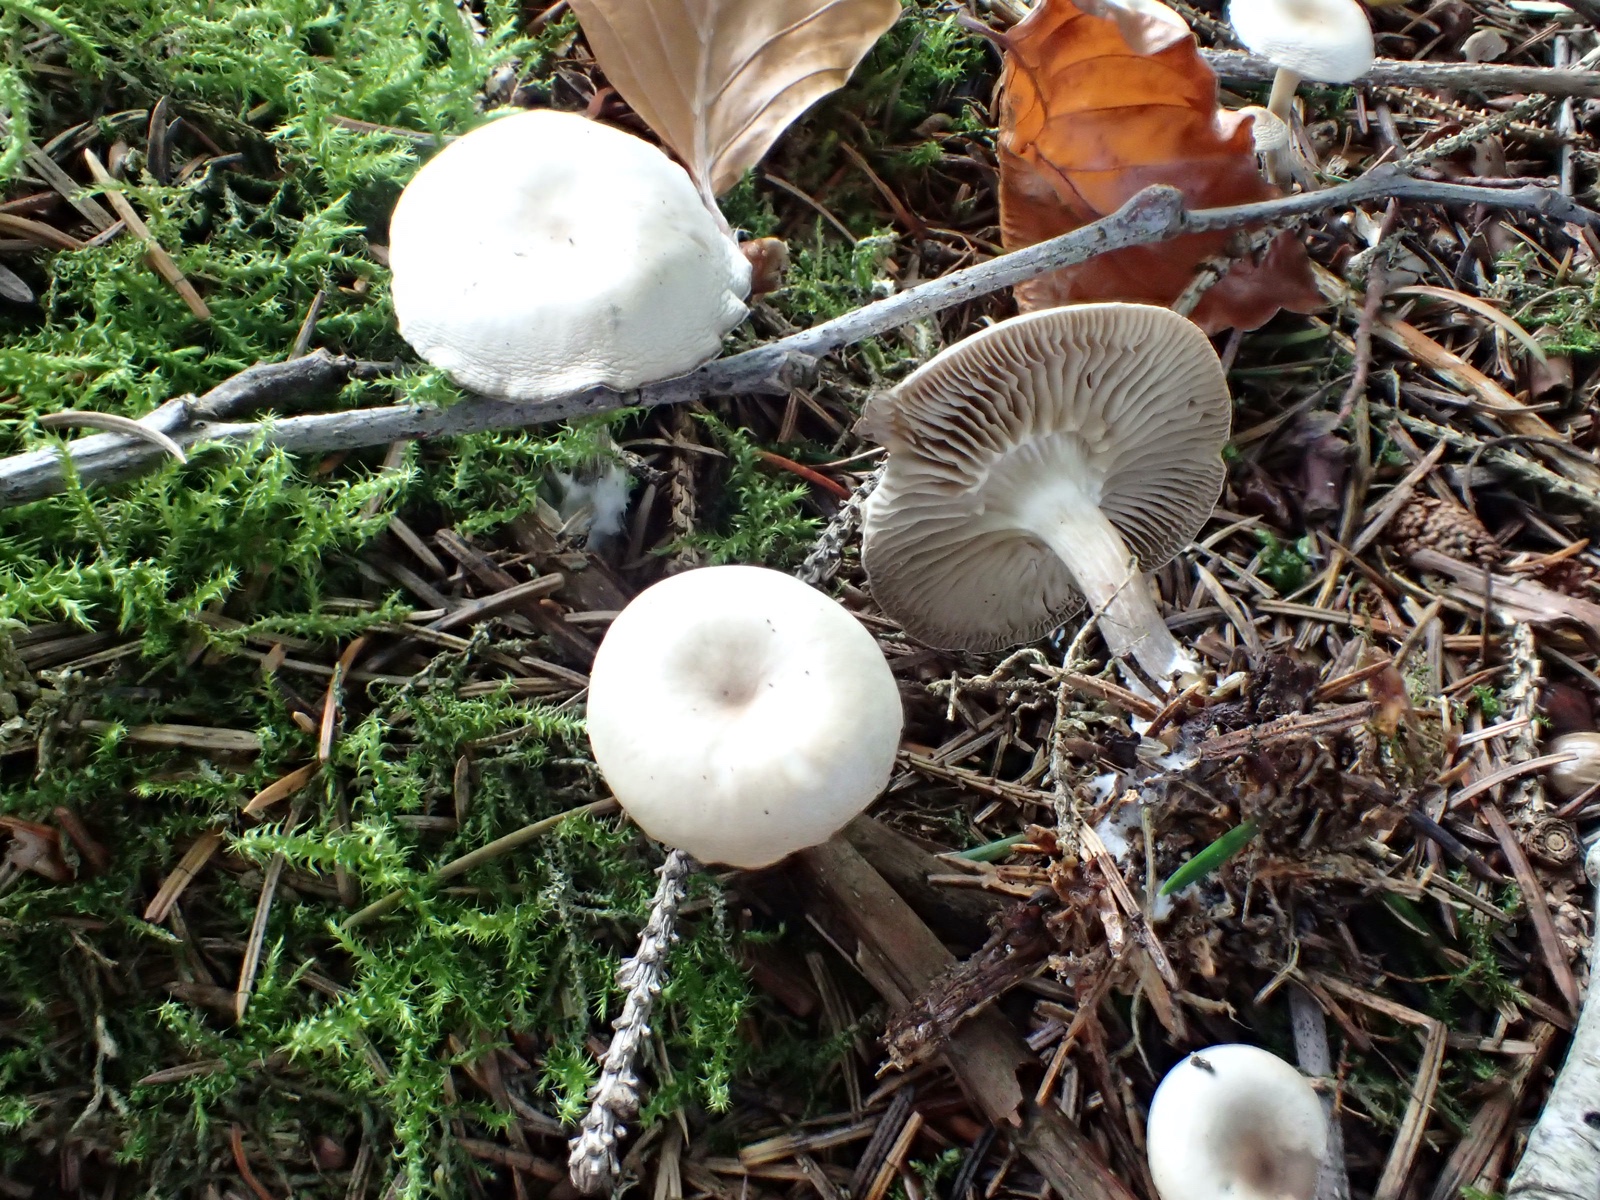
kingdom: Fungi
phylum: Basidiomycota
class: Agaricomycetes
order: Agaricales
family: Tricholomataceae
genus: Clitocybe
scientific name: Clitocybe
